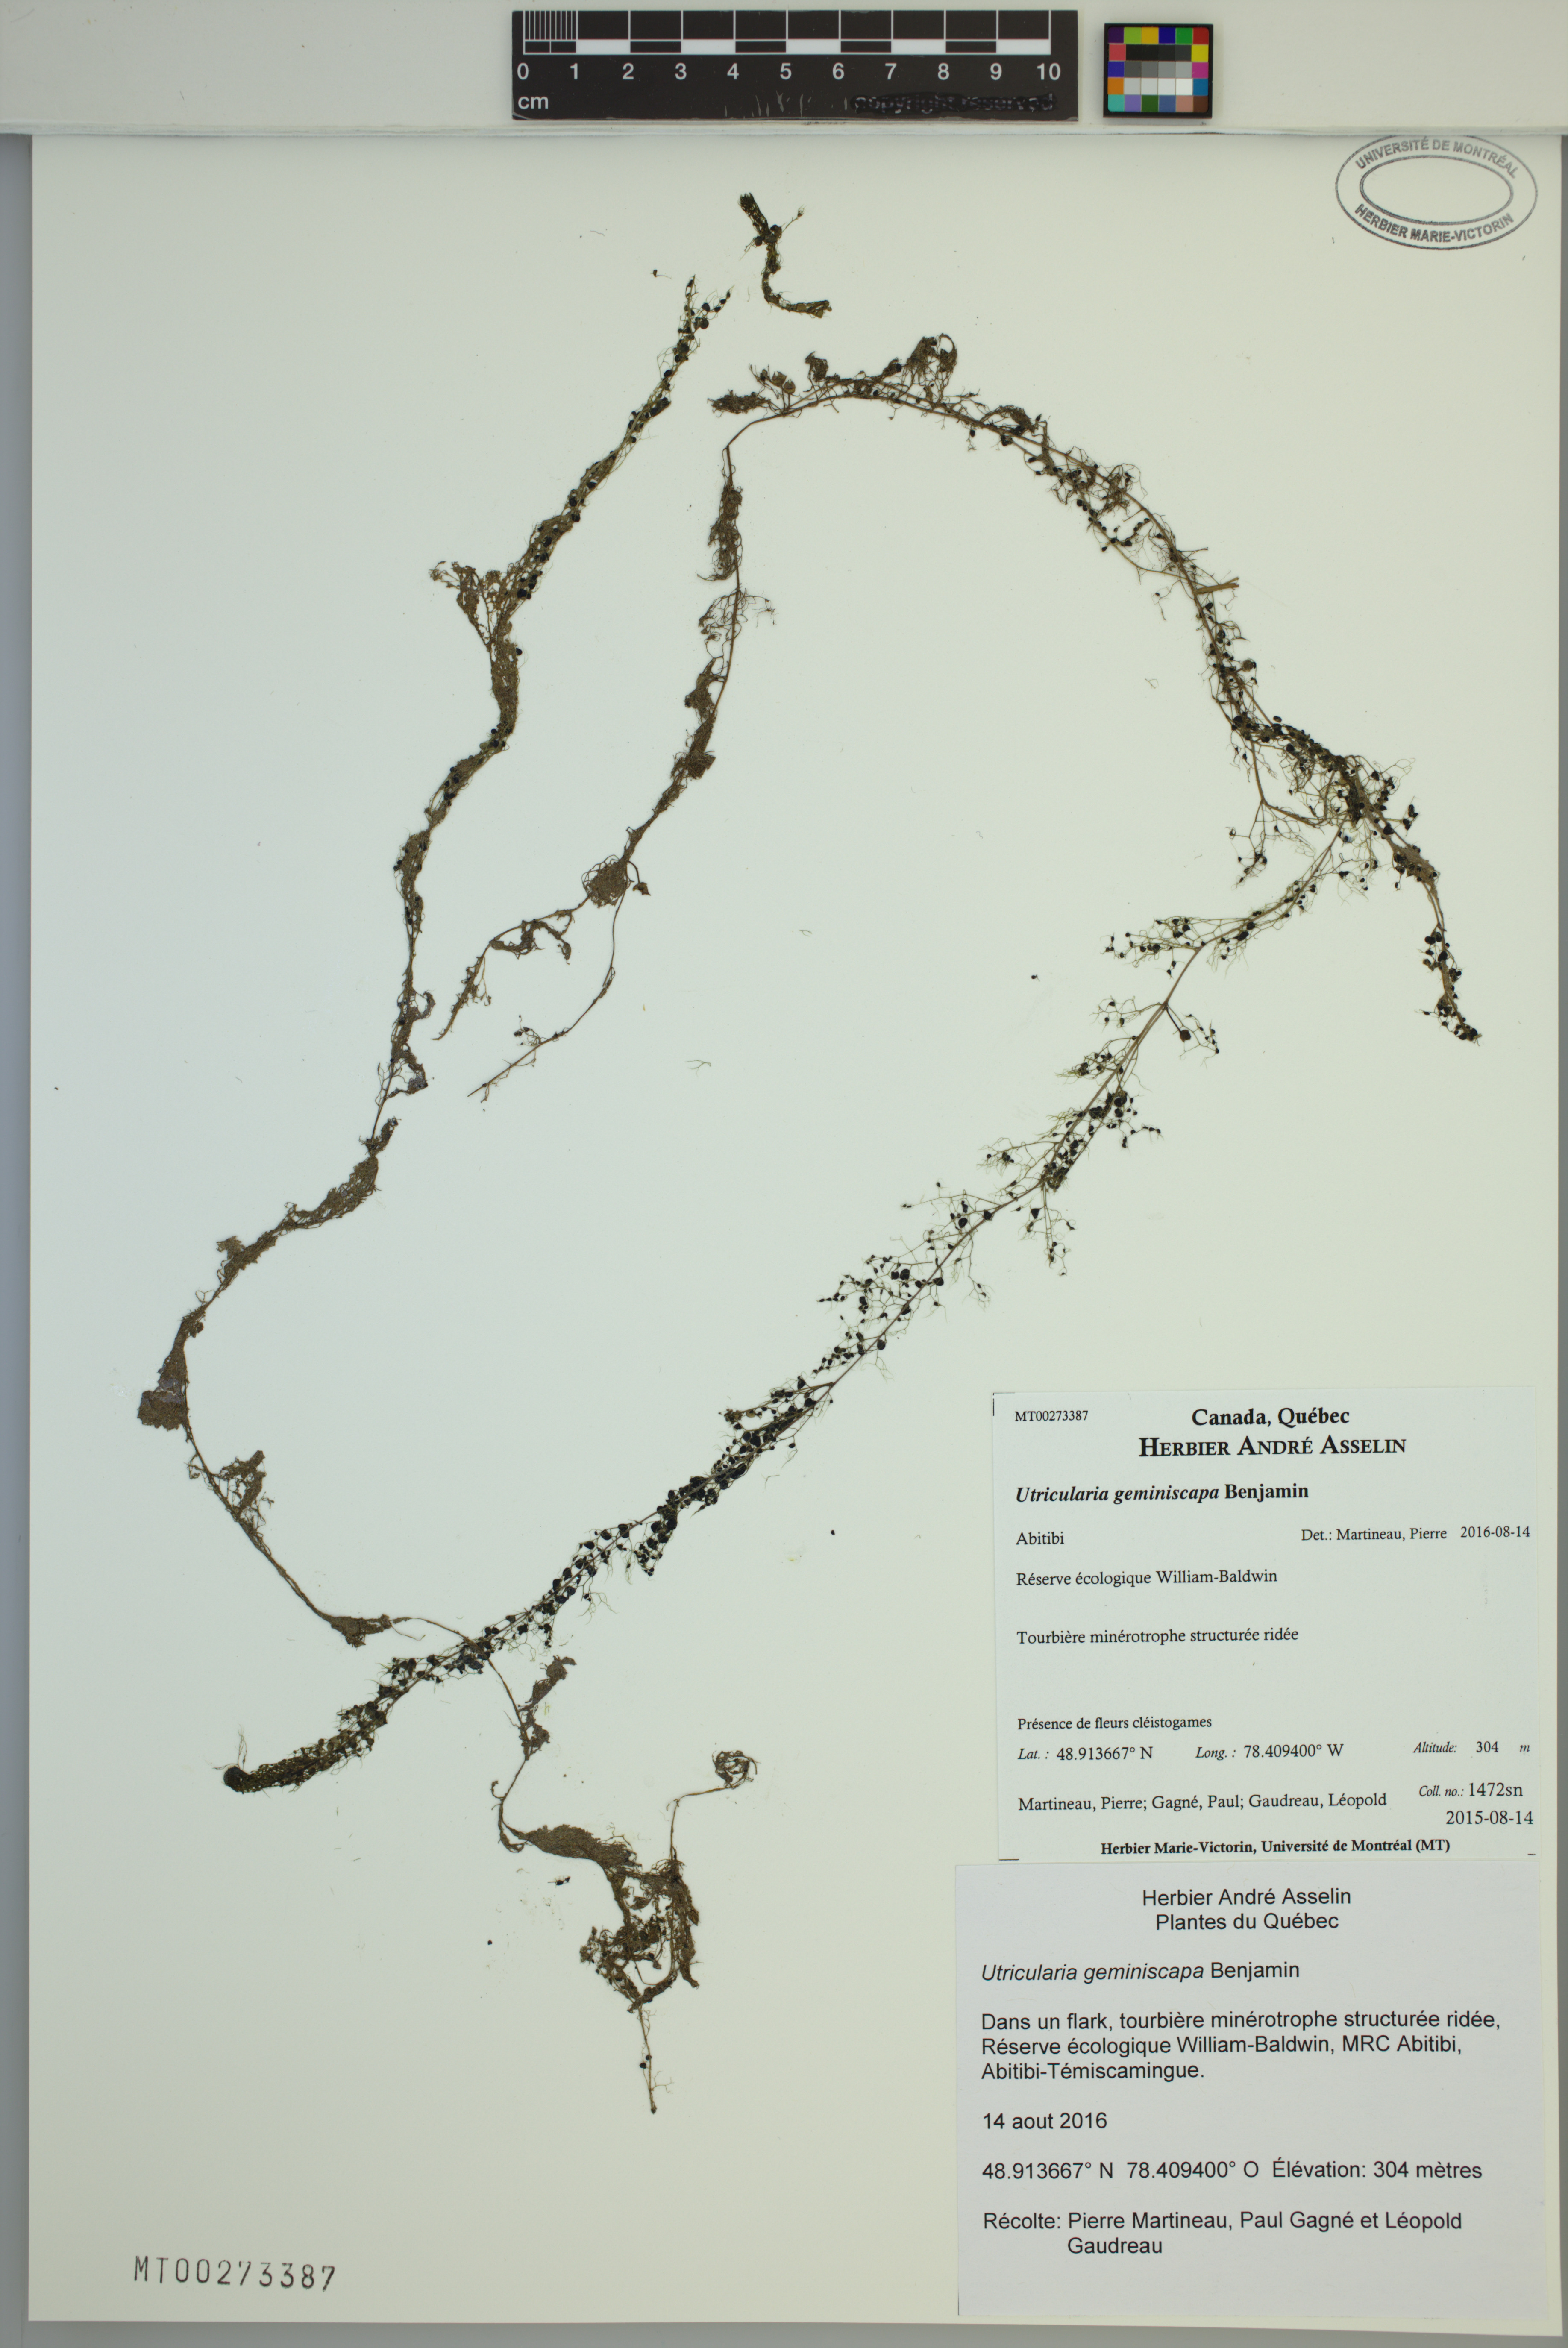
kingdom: Plantae
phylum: Tracheophyta
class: Magnoliopsida
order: Lamiales
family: Lentibulariaceae
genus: Utricularia
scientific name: Utricularia geminiscapa
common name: Hidden-fruit bladderwort
